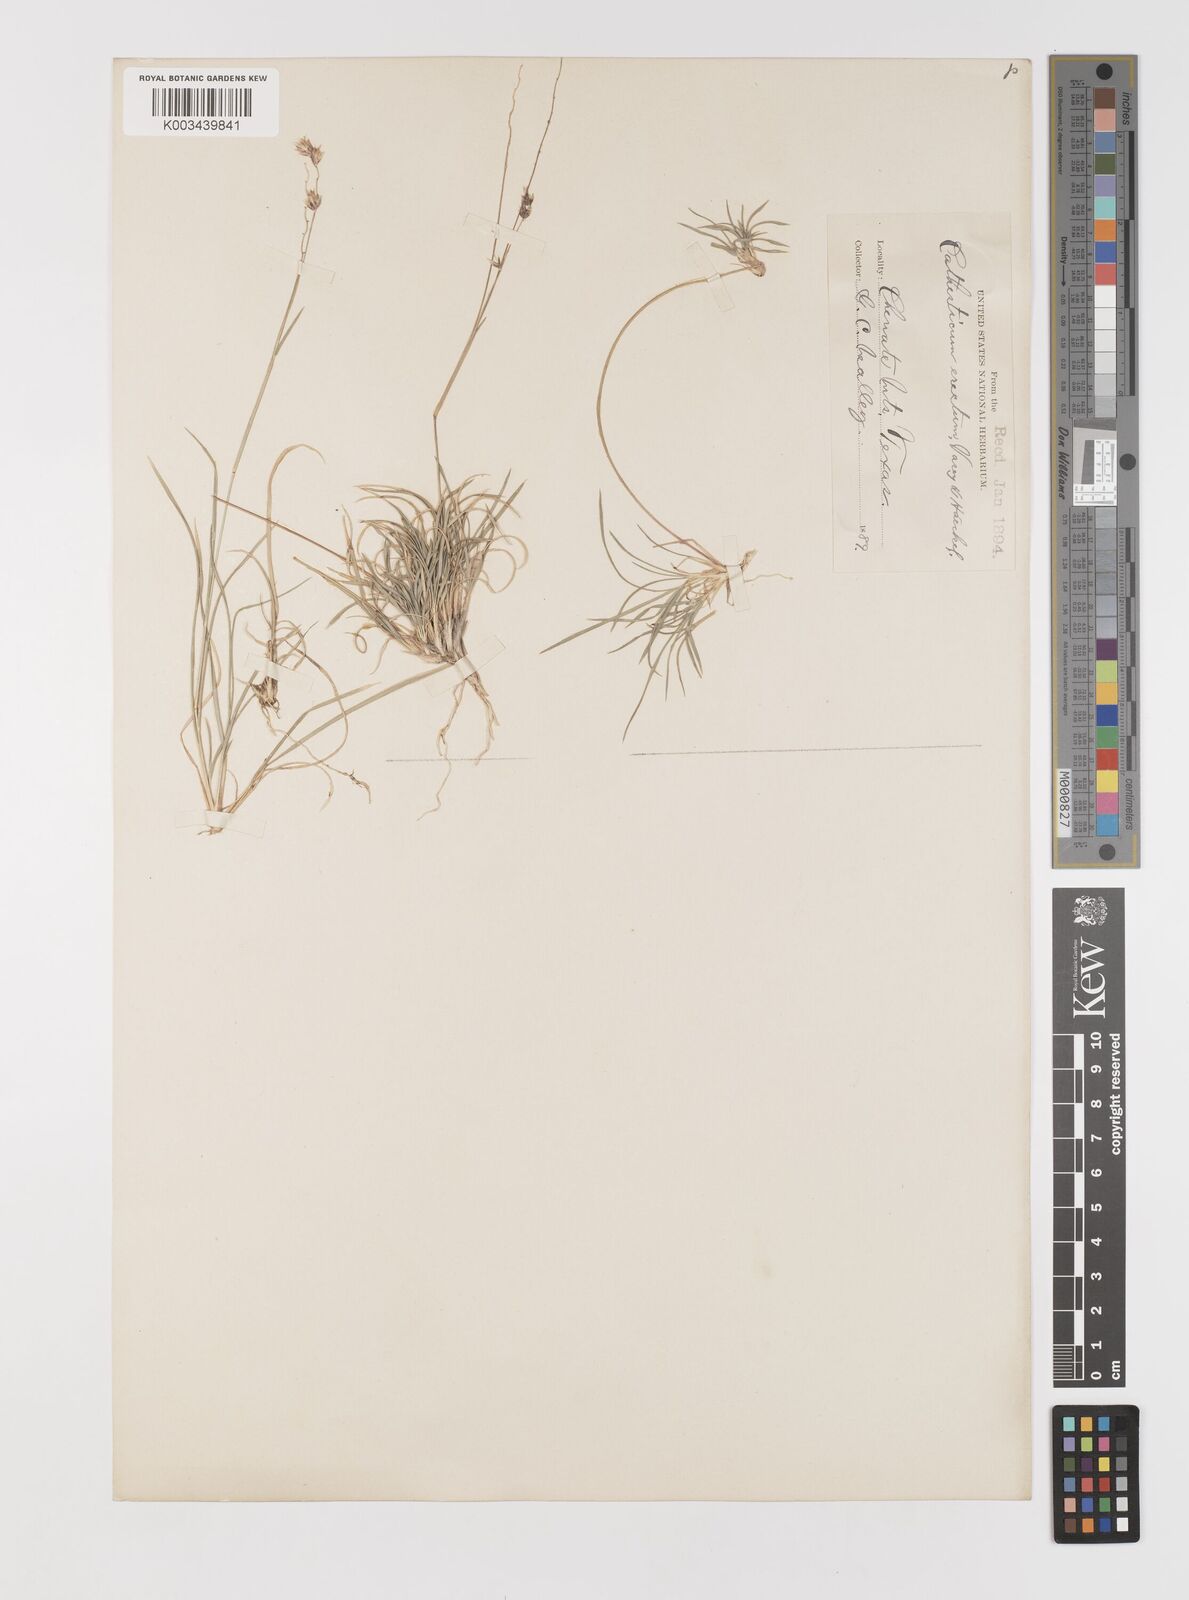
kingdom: Plantae
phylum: Tracheophyta
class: Liliopsida
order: Poales
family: Poaceae
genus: Bouteloua
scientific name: Bouteloua erecta
